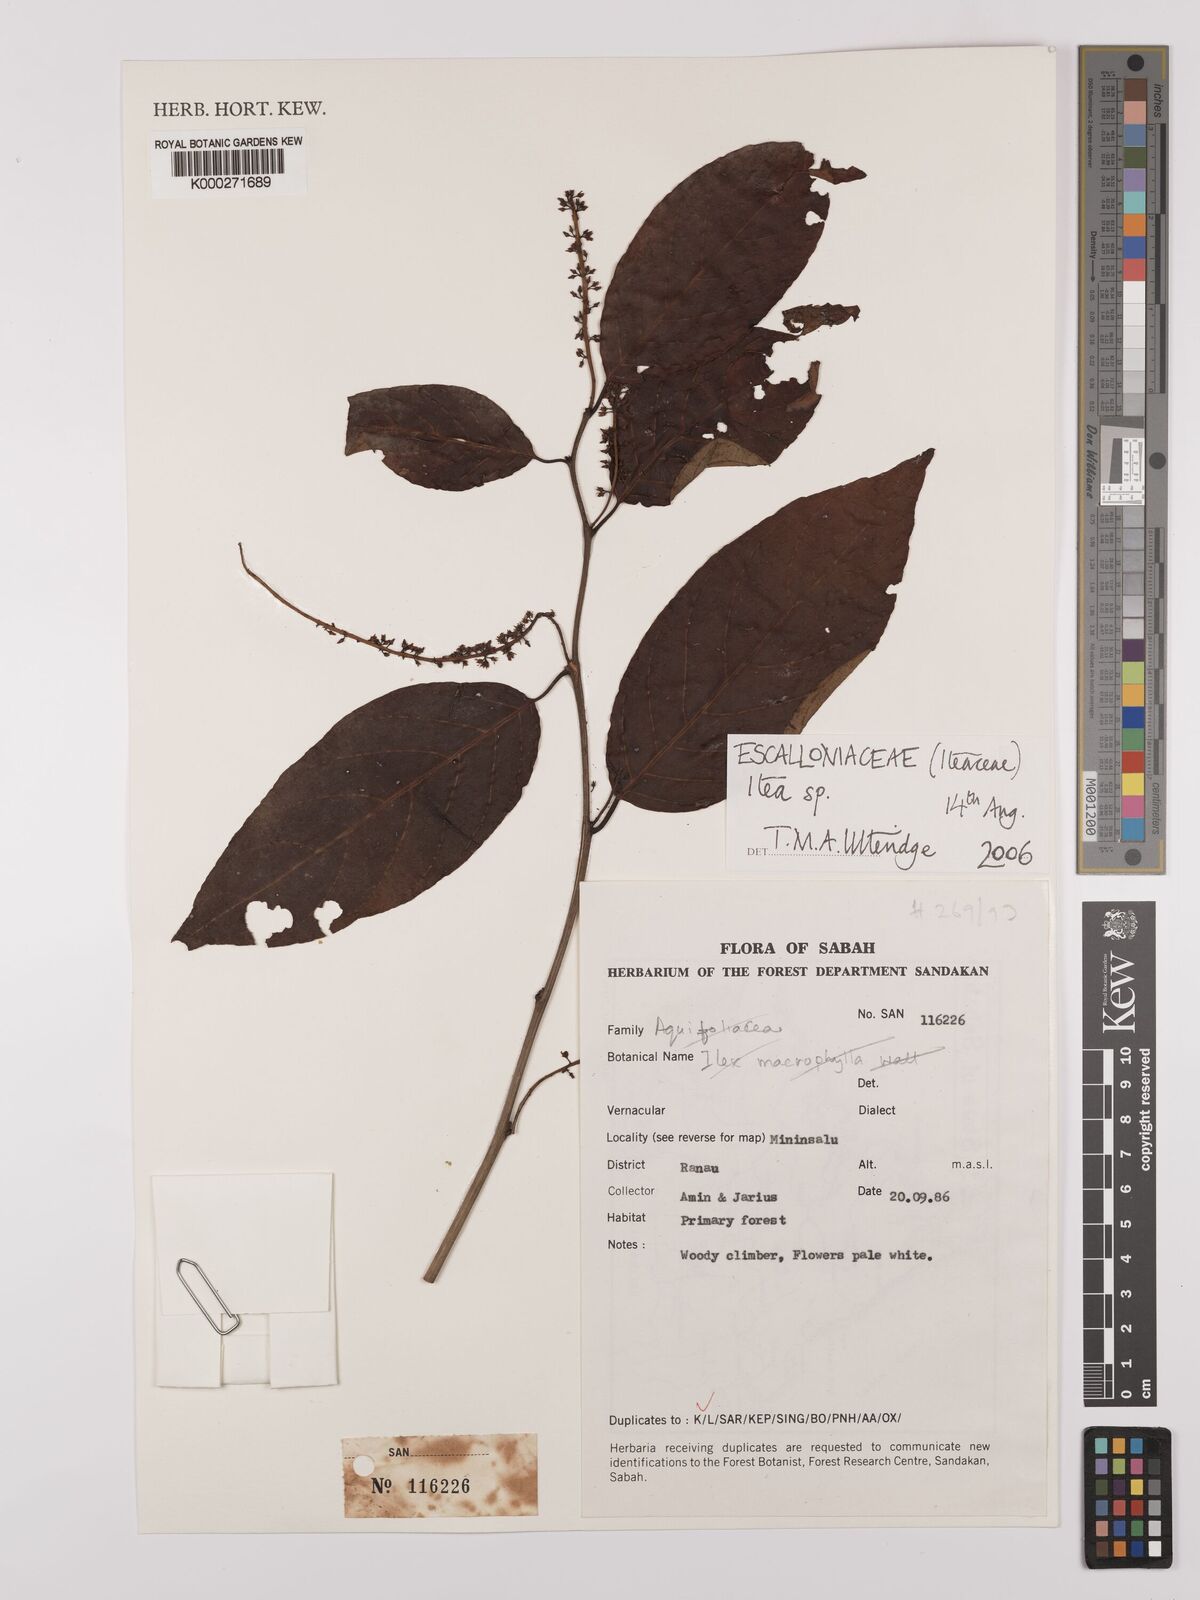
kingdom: Plantae
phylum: Tracheophyta
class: Magnoliopsida
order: Saxifragales
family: Iteaceae
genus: Itea
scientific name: Itea
